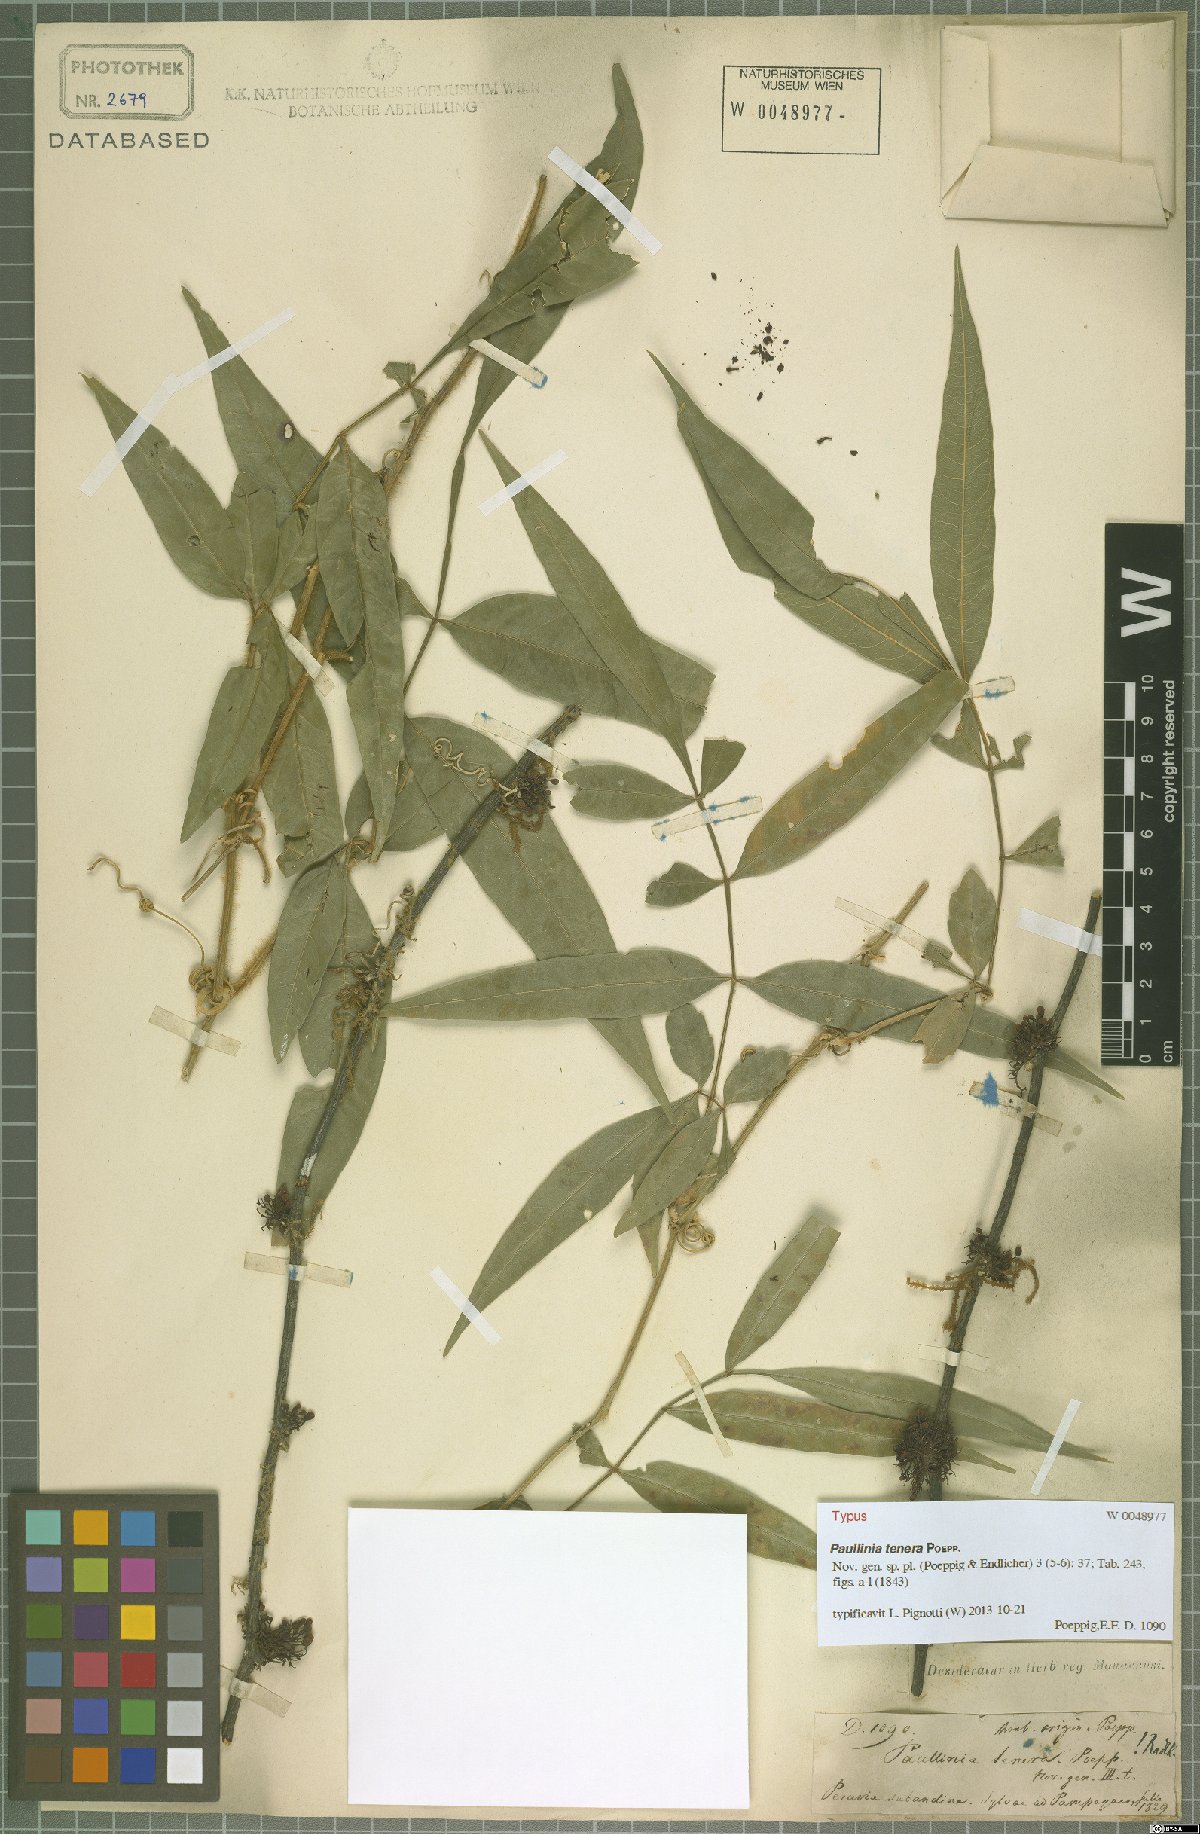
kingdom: Plantae
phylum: Tracheophyta
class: Magnoliopsida
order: Sapindales
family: Sapindaceae
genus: Paullinia
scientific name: Paullinia tenera
